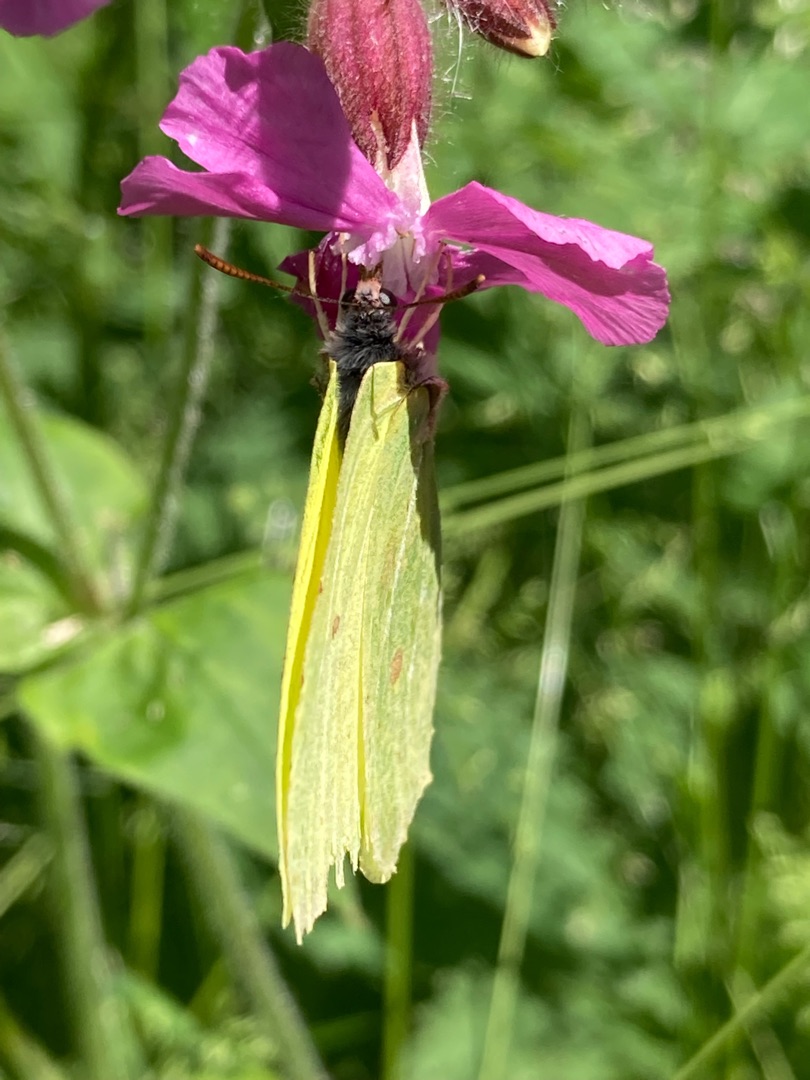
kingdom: Animalia
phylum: Arthropoda
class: Insecta
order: Lepidoptera
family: Pieridae
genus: Gonepteryx
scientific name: Gonepteryx rhamni
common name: Citronsommerfugl
